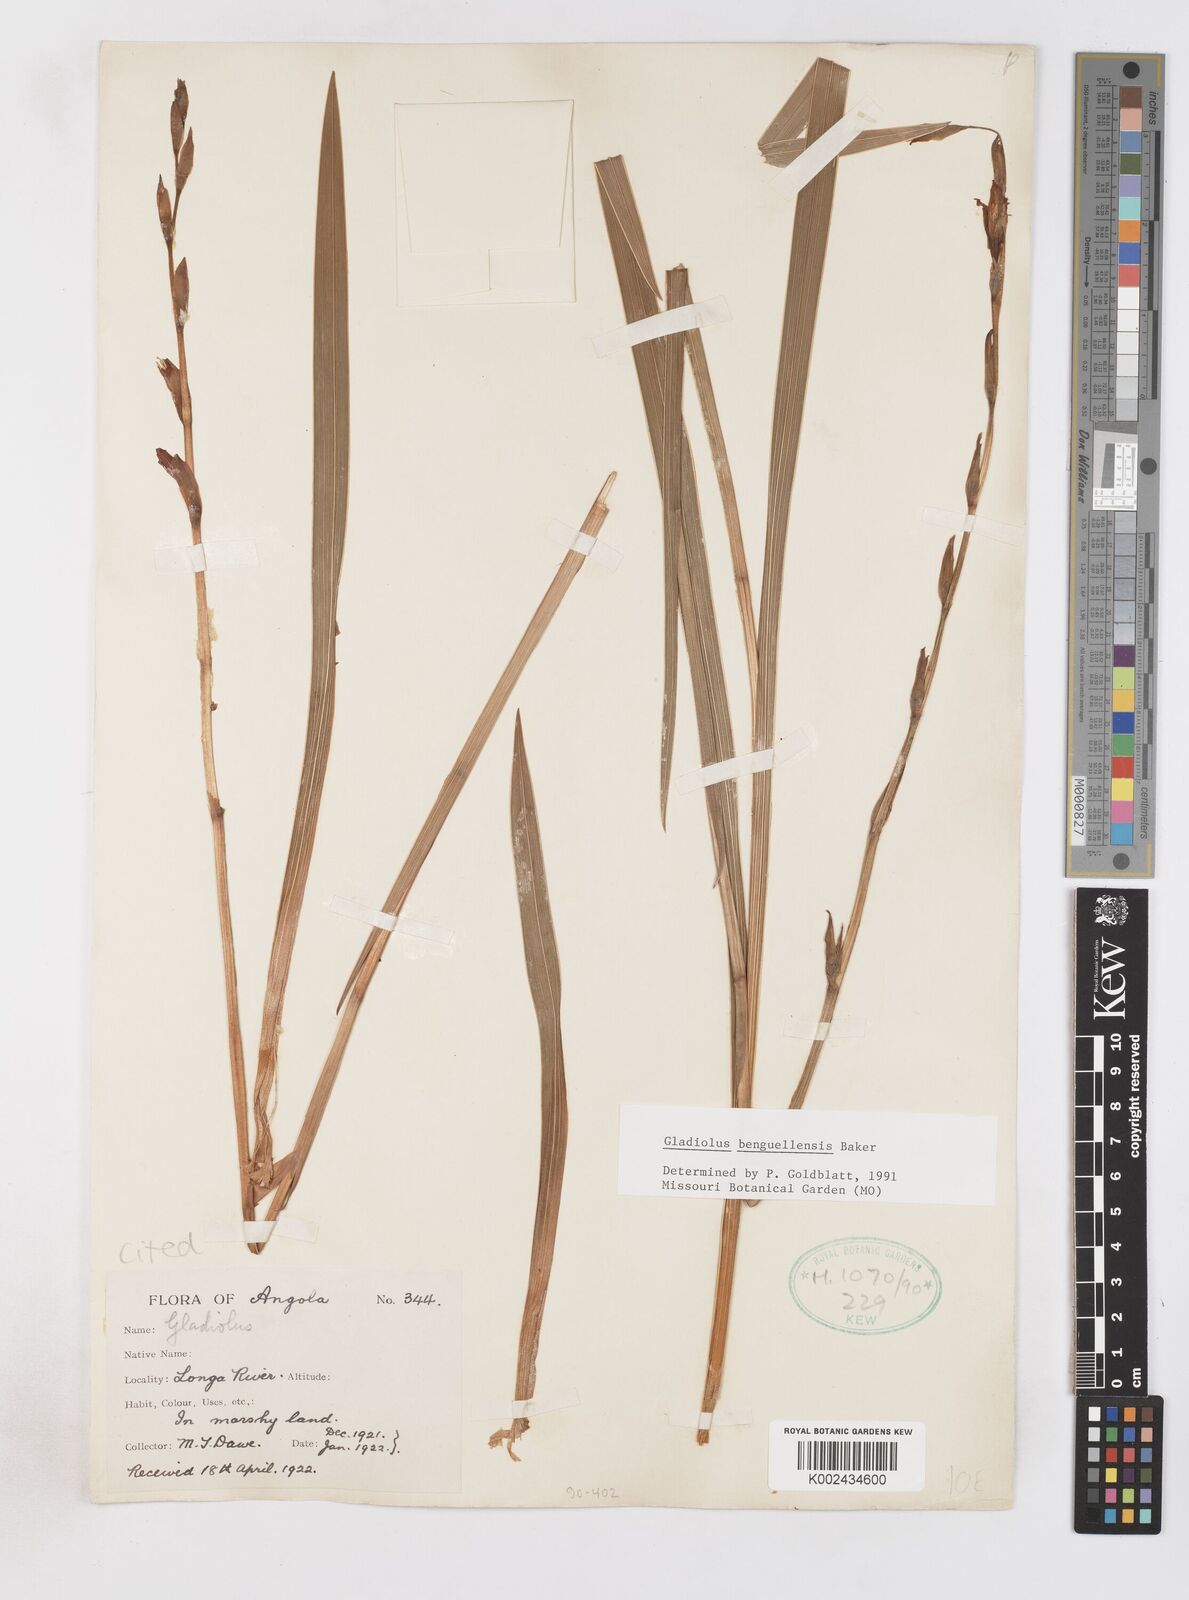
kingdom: Plantae
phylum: Tracheophyta
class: Liliopsida
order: Asparagales
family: Iridaceae
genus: Gladiolus
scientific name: Gladiolus benguellensis
